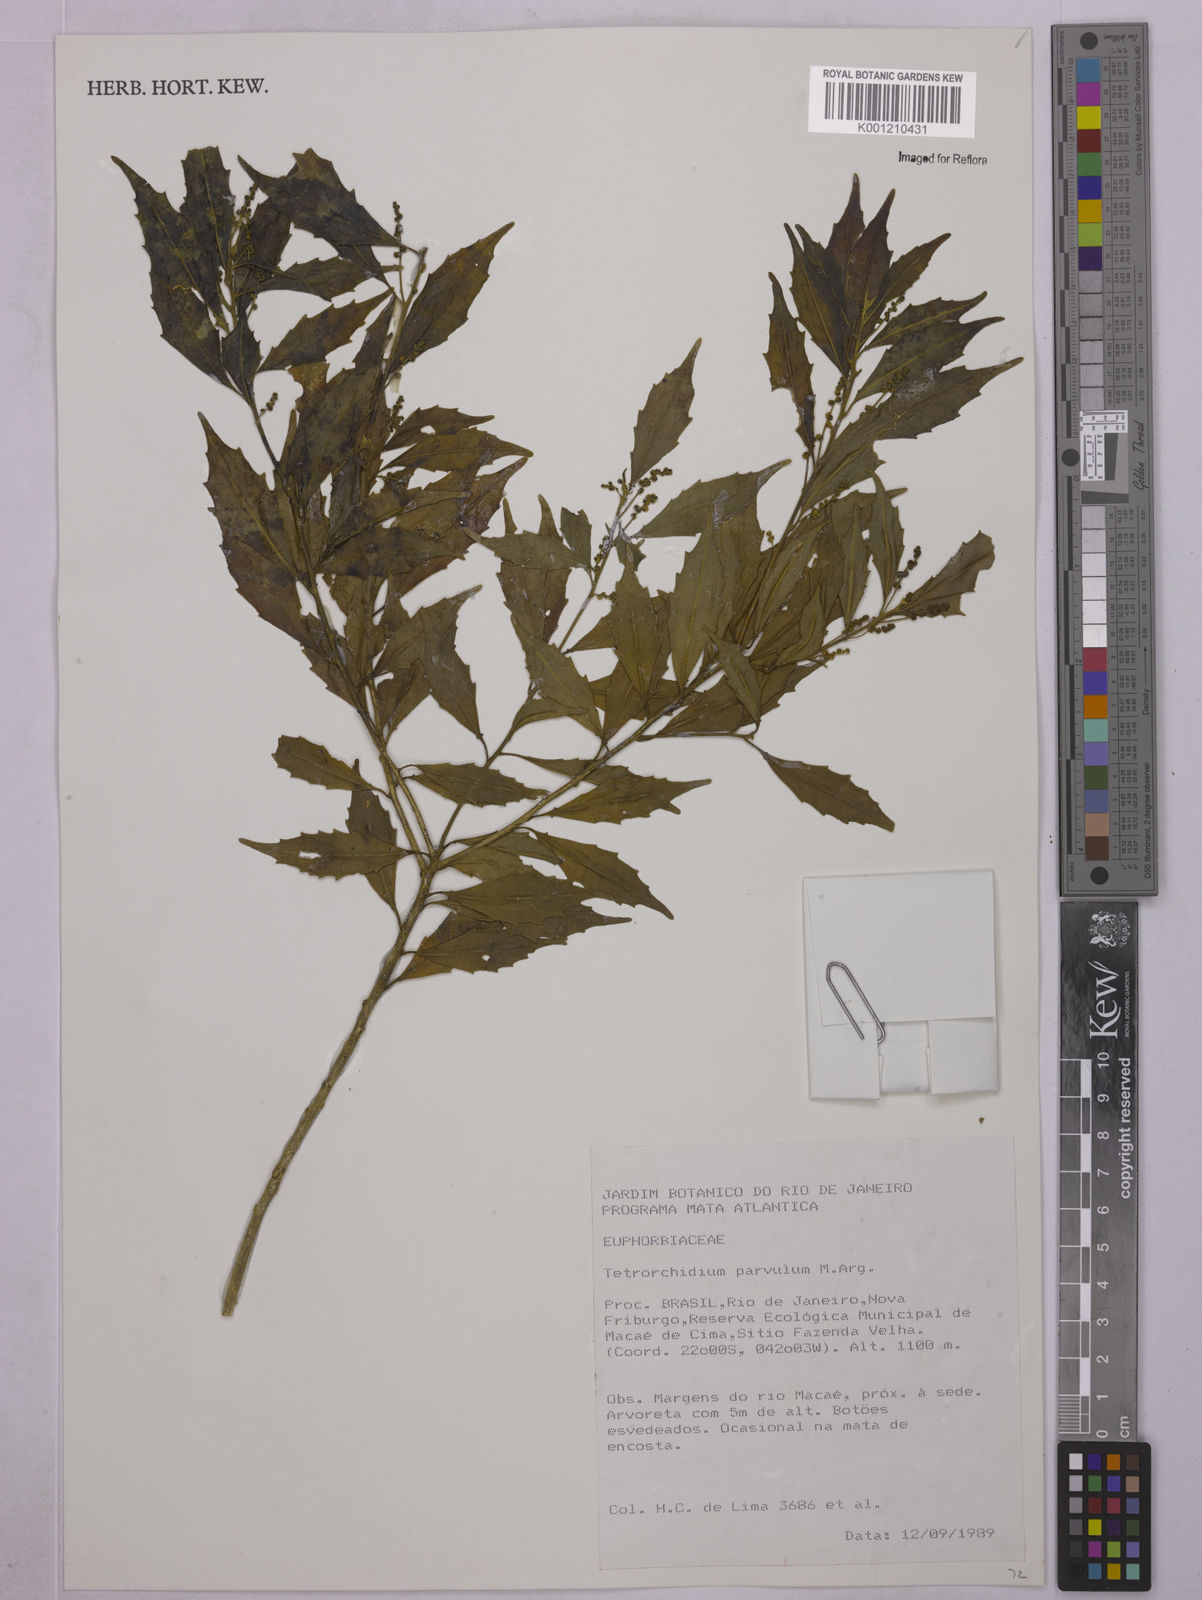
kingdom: Plantae
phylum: Tracheophyta
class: Magnoliopsida
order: Malpighiales
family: Euphorbiaceae
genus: Tetrorchidium
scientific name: Tetrorchidium
